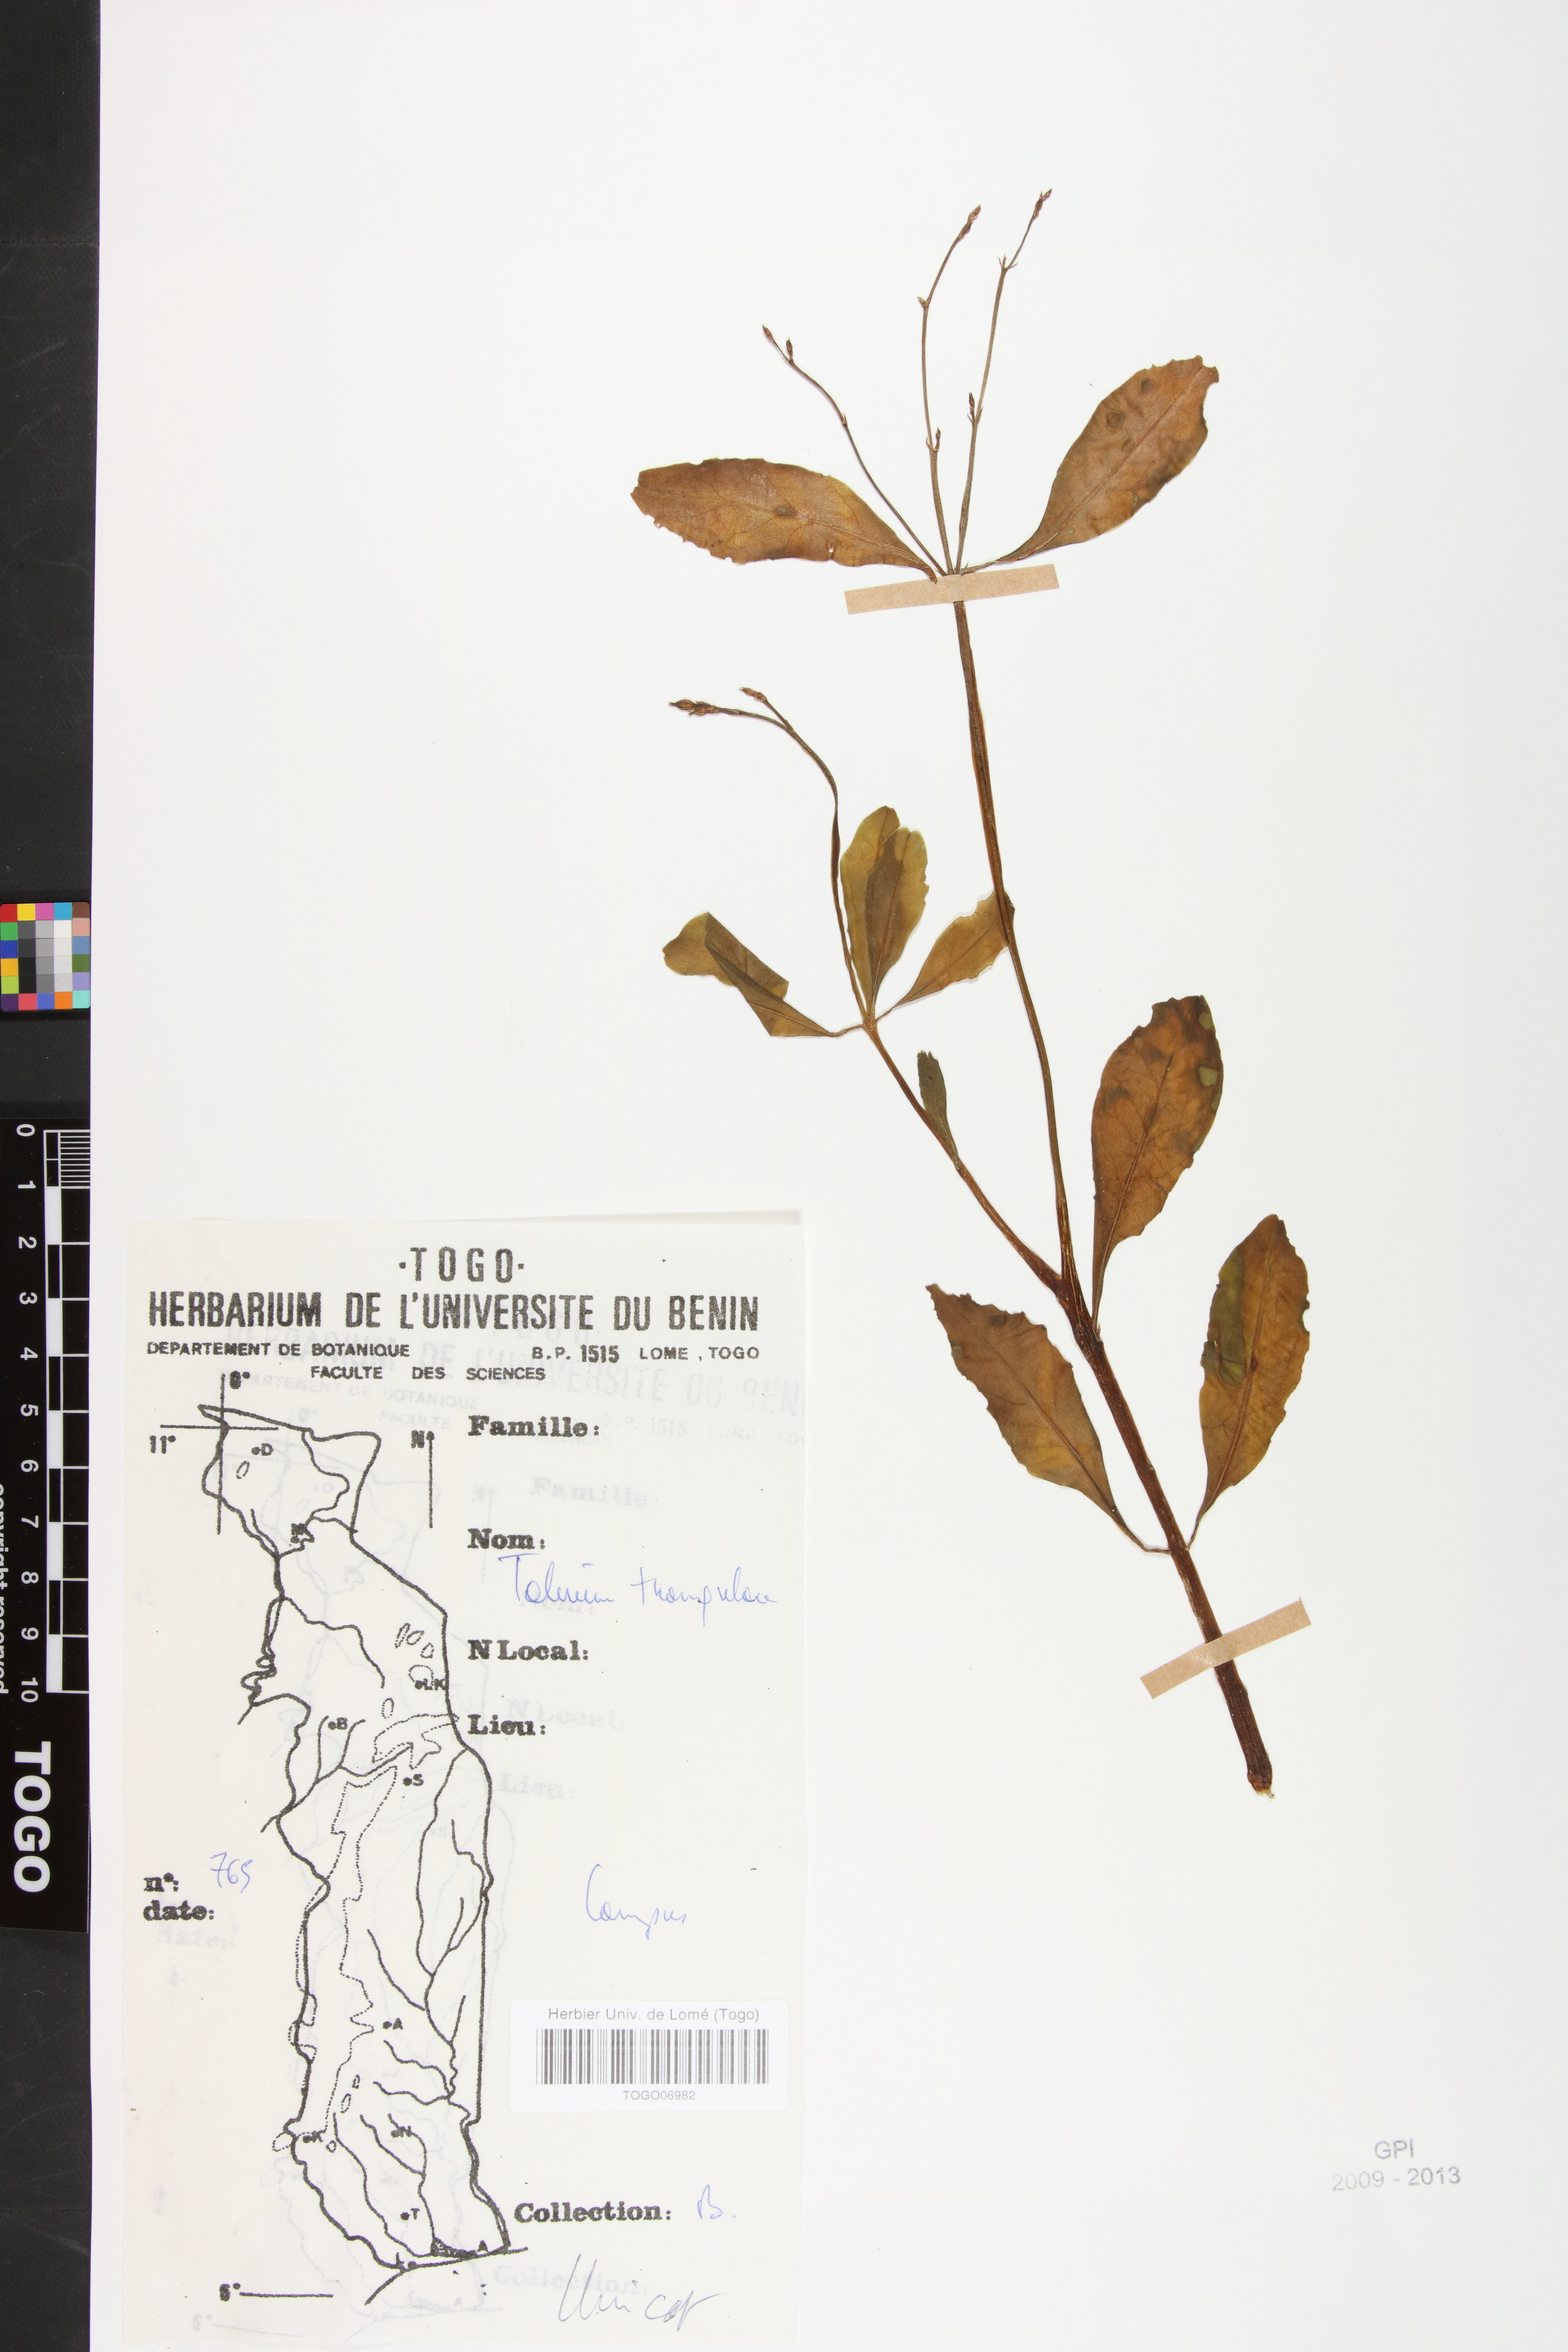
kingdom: Plantae
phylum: Tracheophyta
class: Magnoliopsida
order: Caryophyllales
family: Talinaceae
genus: Talinum
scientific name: Talinum fruticosum
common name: Verdolaga-francesa
